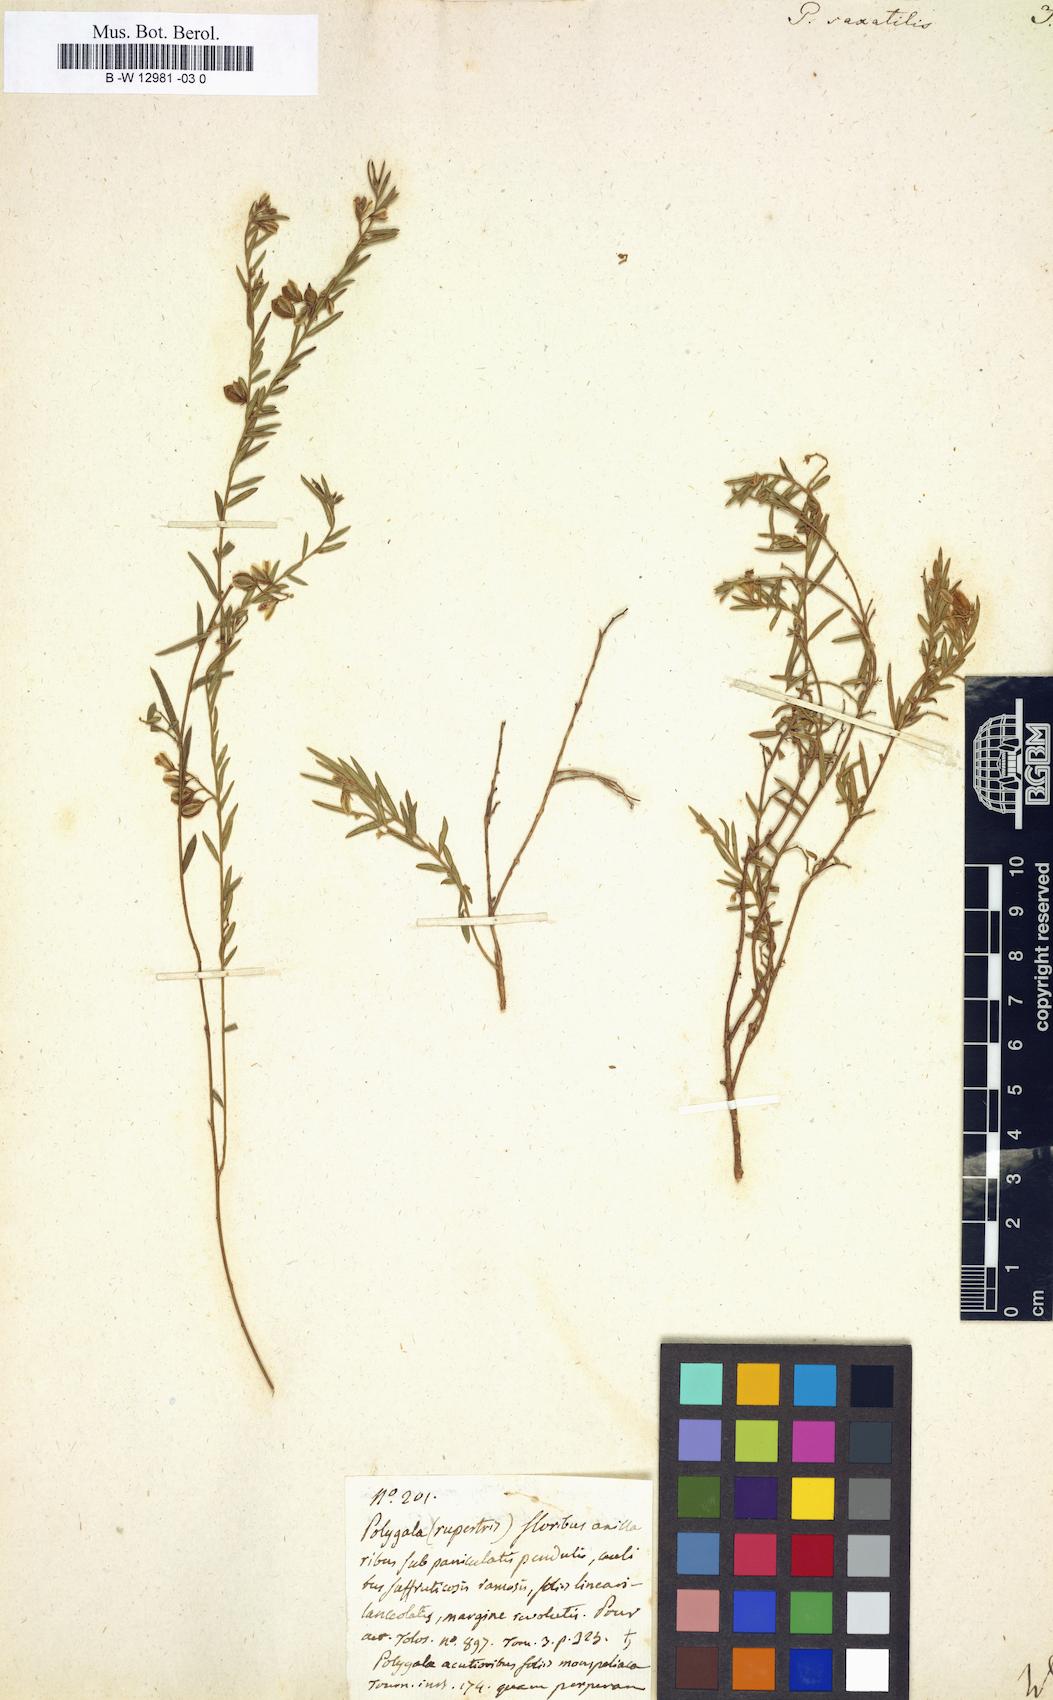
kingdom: Plantae
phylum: Tracheophyta
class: Magnoliopsida
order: Fabales
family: Polygalaceae
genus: Polygala
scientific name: Polygala
